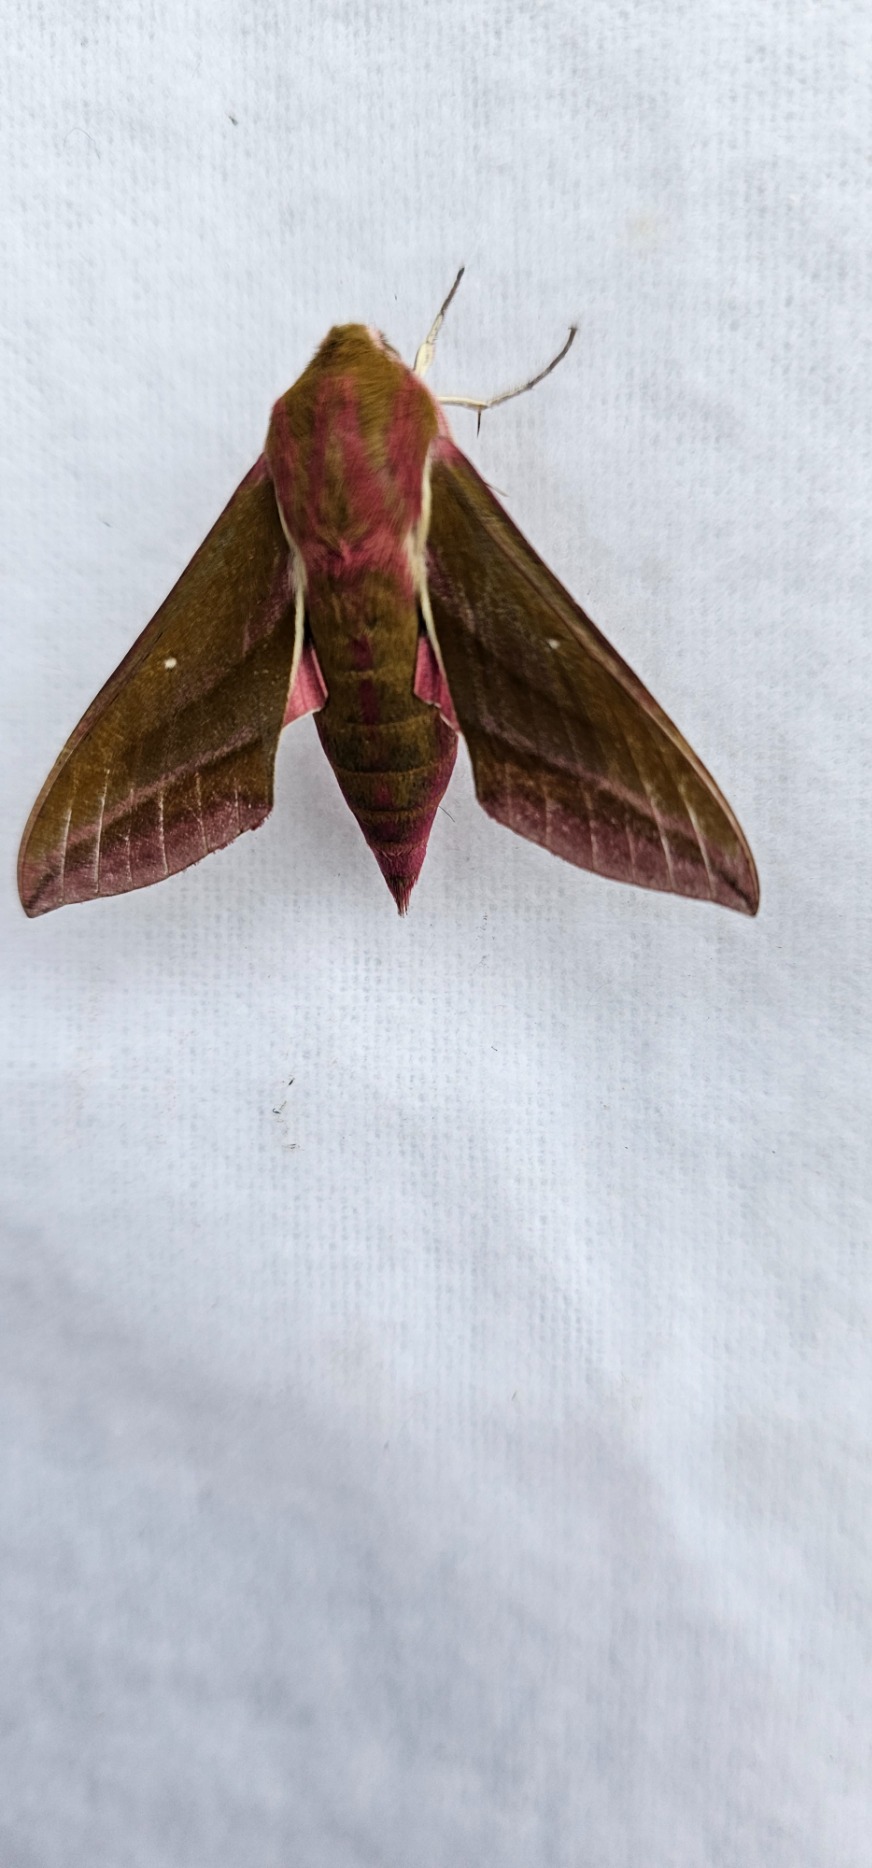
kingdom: Animalia
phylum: Arthropoda
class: Insecta
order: Lepidoptera
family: Sphingidae
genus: Deilephila
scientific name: Deilephila elpenor
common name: Dueurtsværmer
